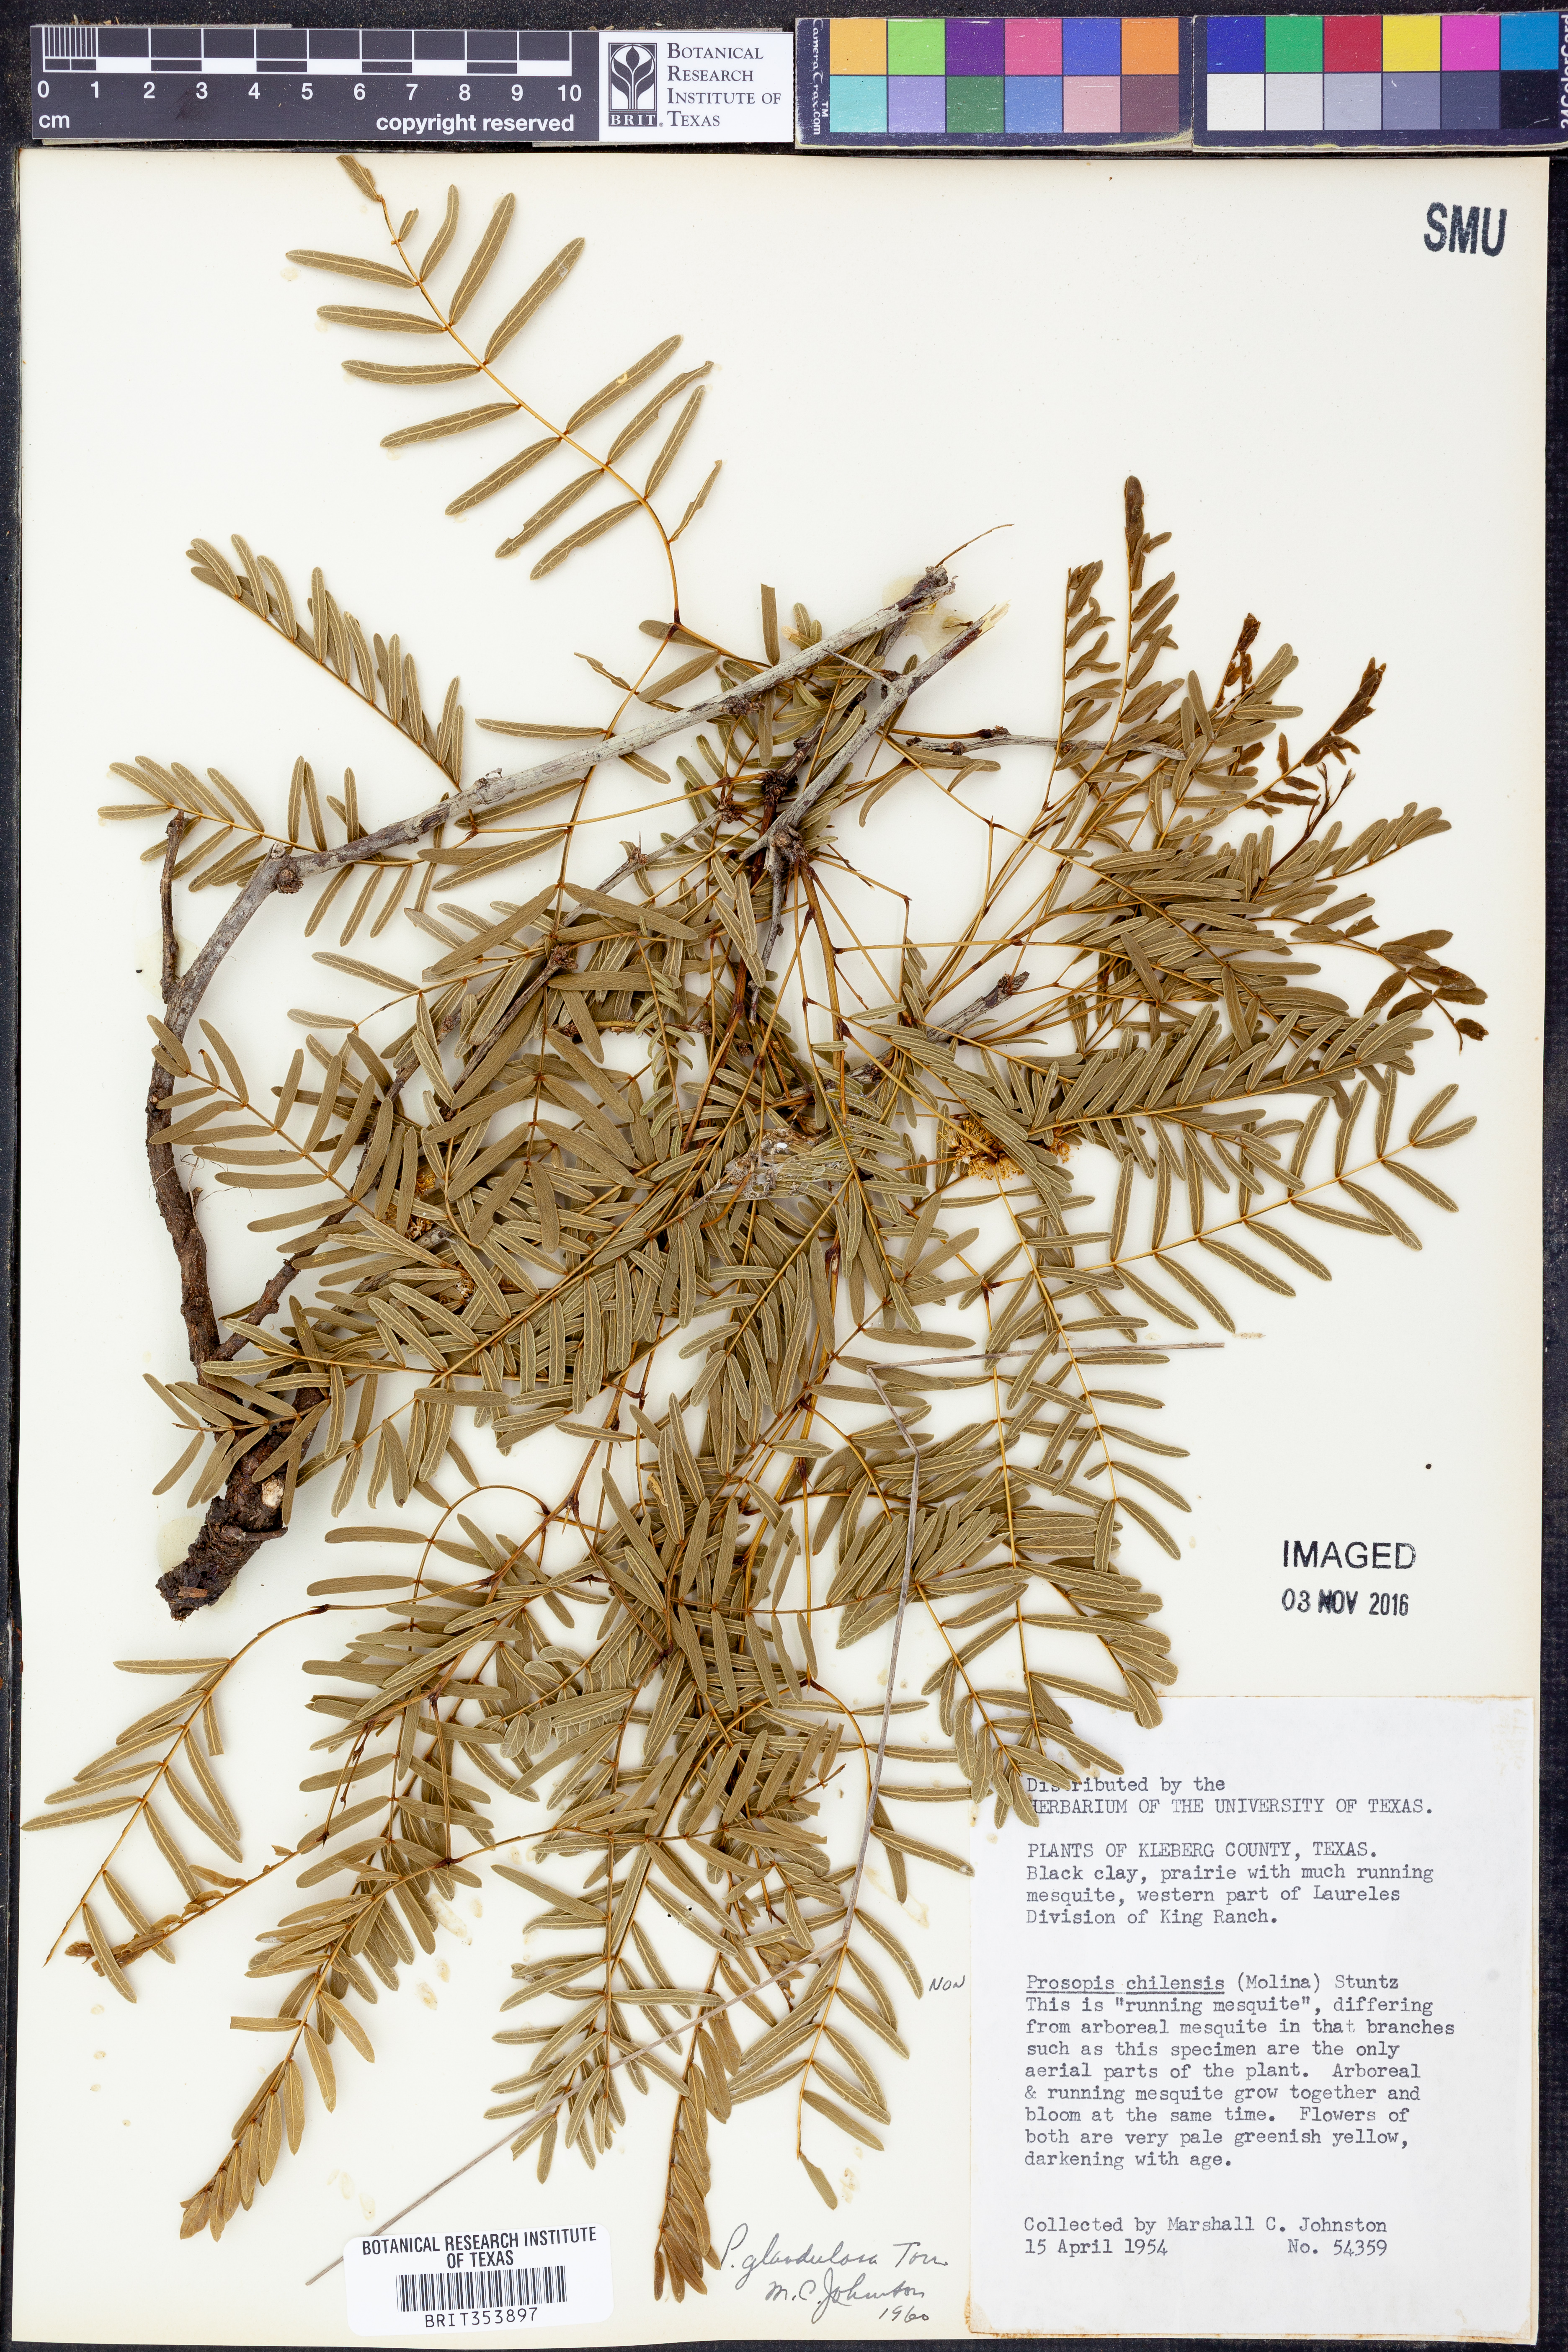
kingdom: Plantae
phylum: Tracheophyta
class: Magnoliopsida
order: Fabales
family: Fabaceae
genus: Prosopis
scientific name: Prosopis glandulosa
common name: Honey mesquite
